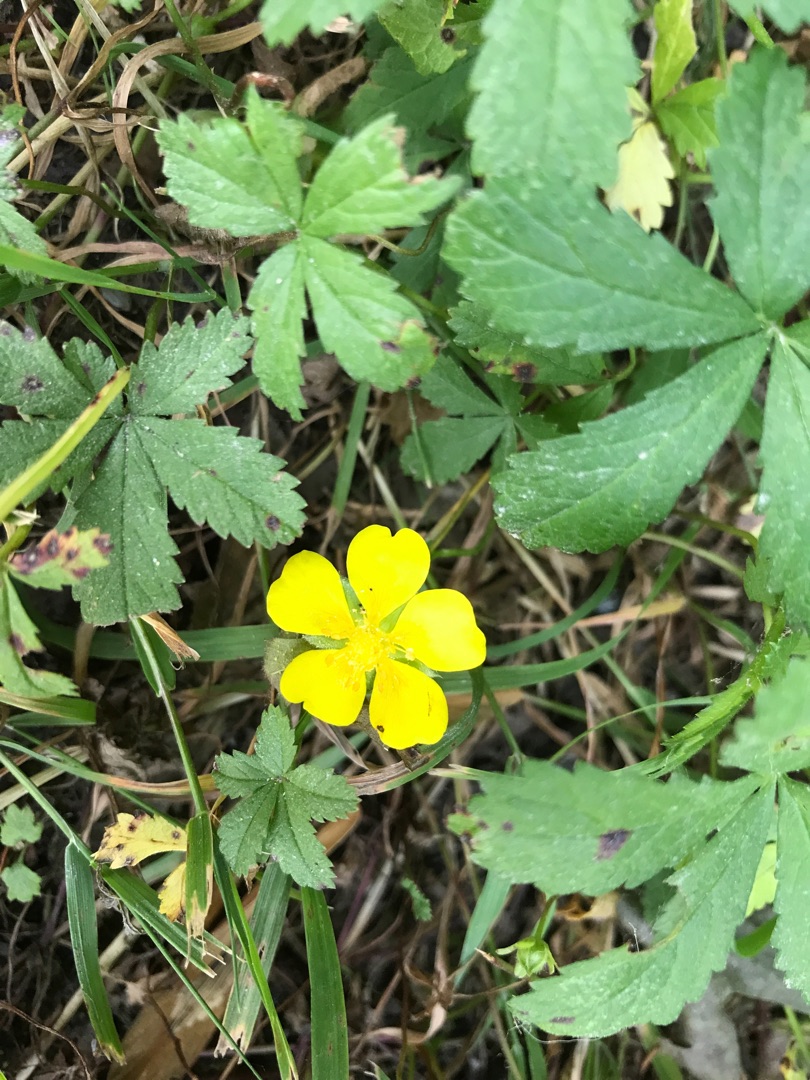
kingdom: Plantae
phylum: Tracheophyta
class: Magnoliopsida
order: Rosales
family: Rosaceae
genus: Potentilla
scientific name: Potentilla reptans
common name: Krybende potentil
